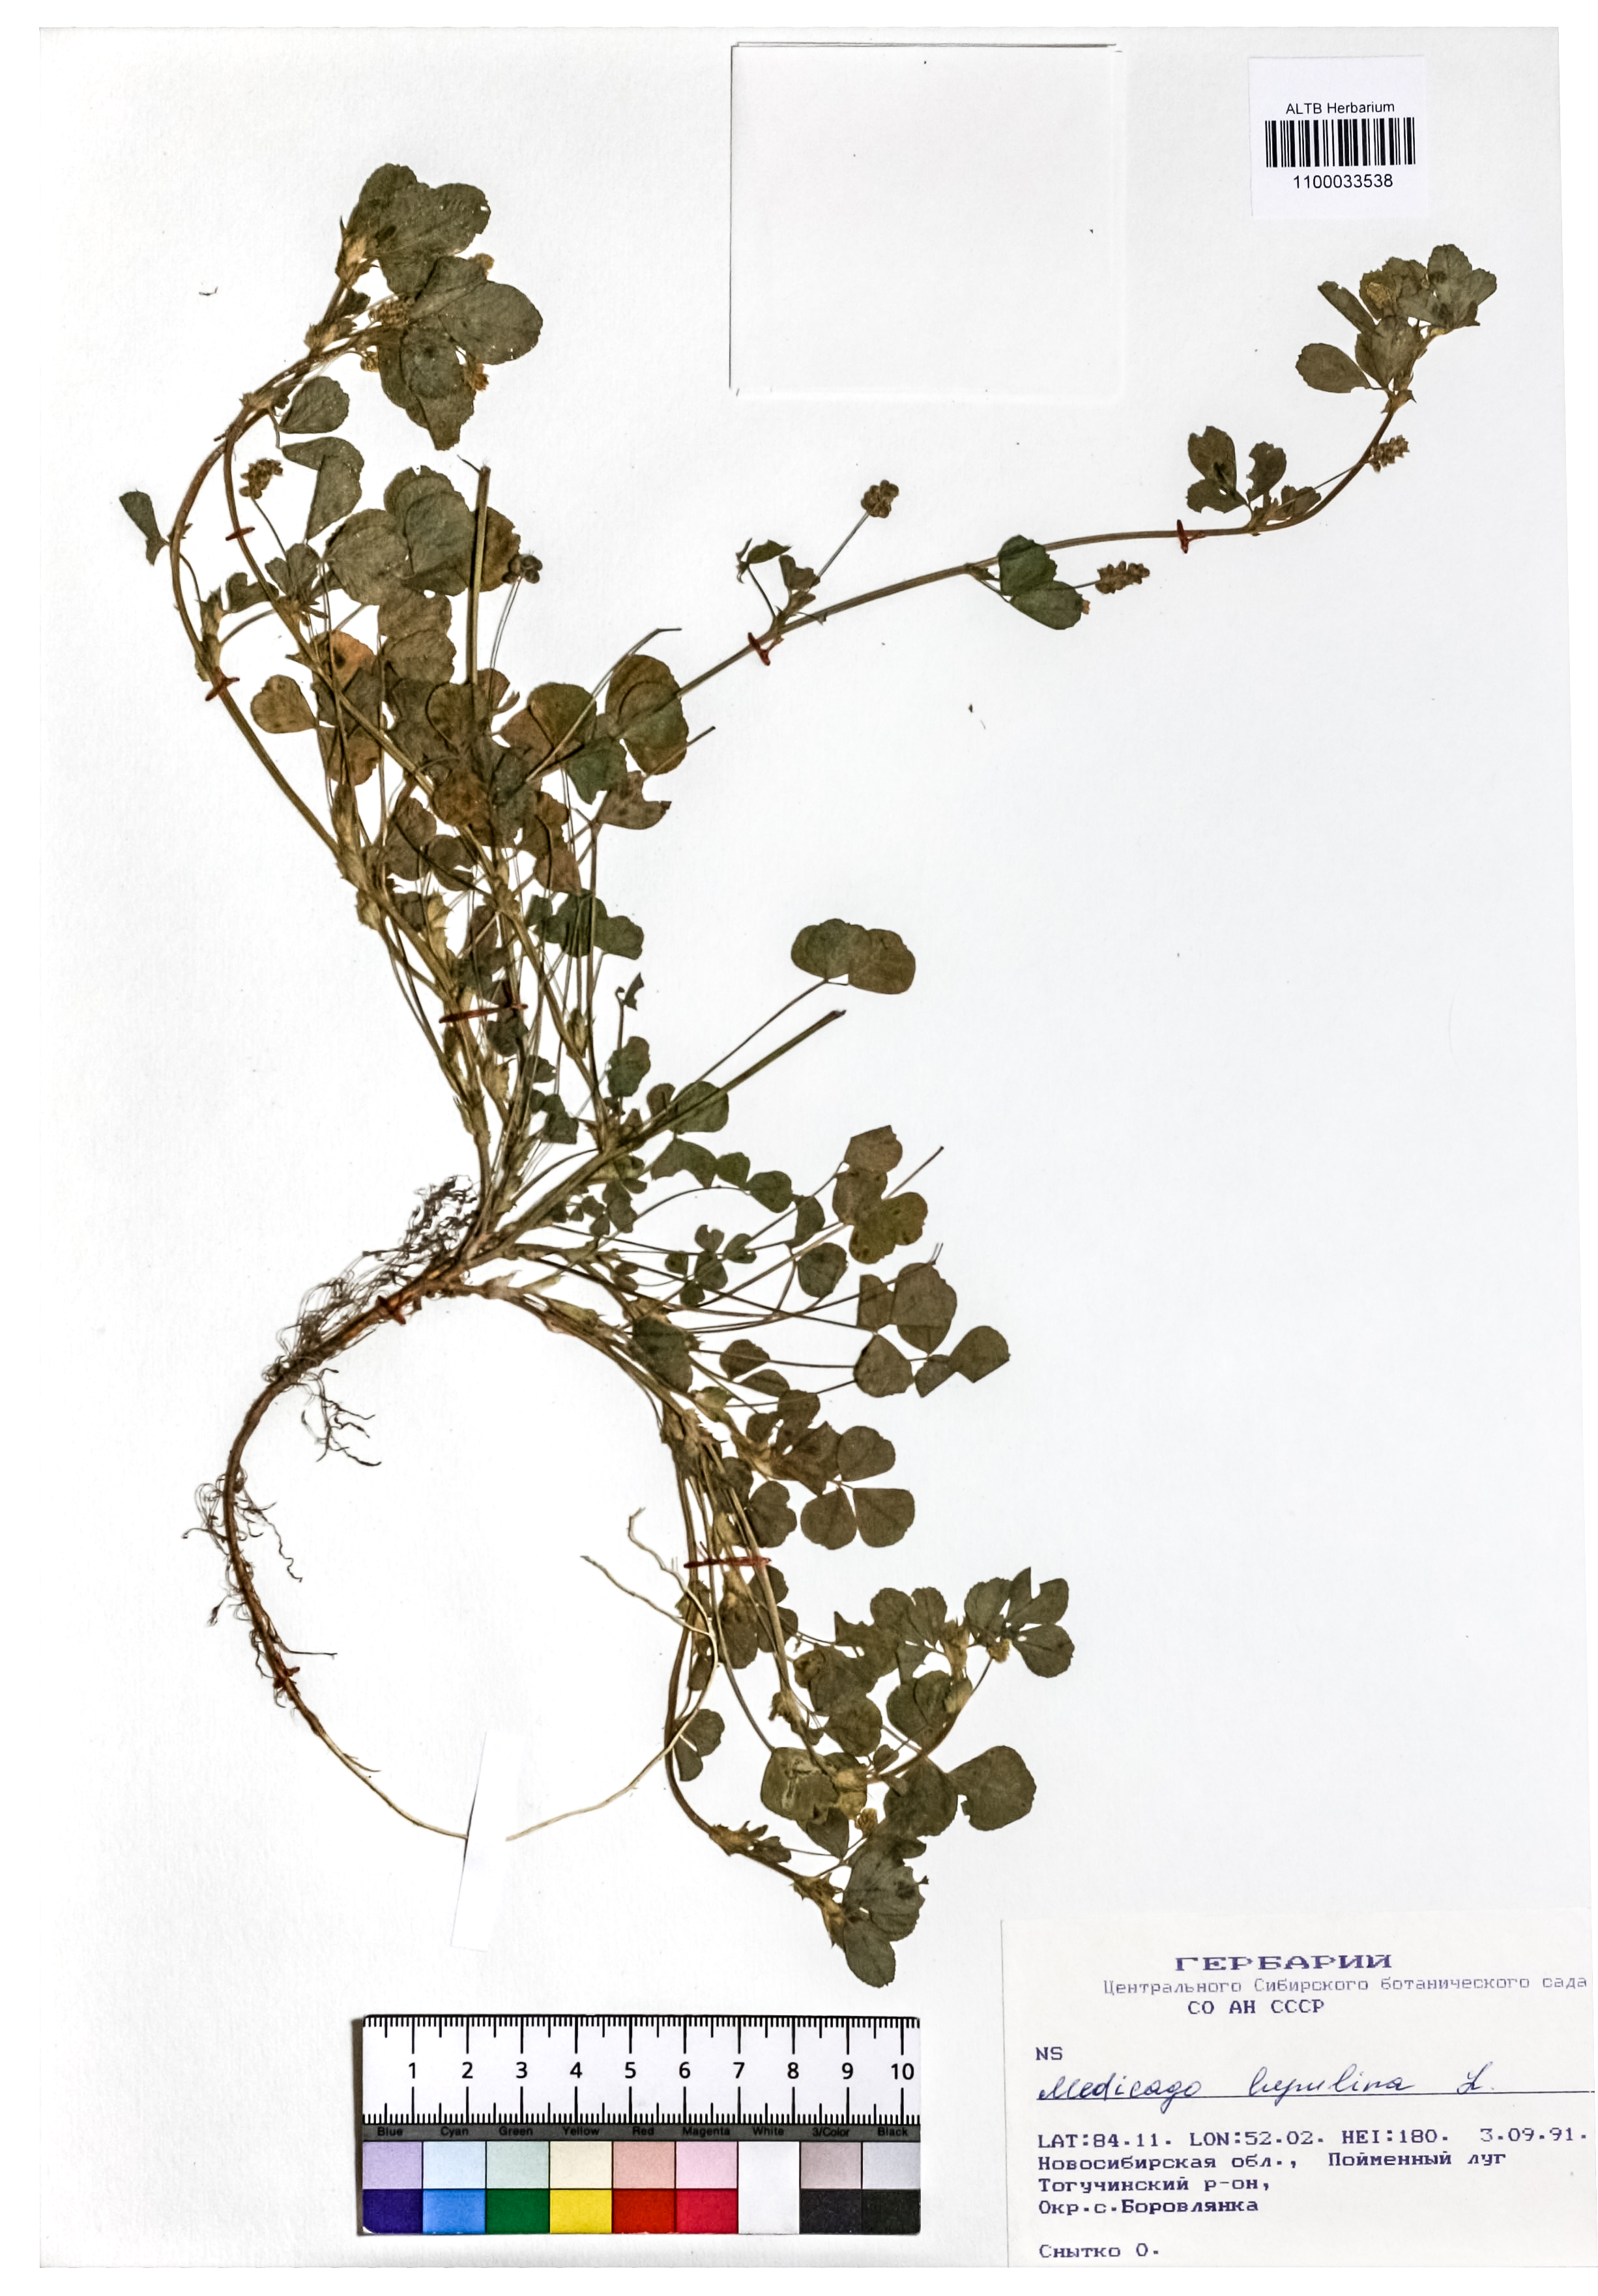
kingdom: Plantae
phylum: Tracheophyta
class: Magnoliopsida
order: Fabales
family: Fabaceae
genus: Medicago
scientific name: Medicago lupulina
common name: Black medick
